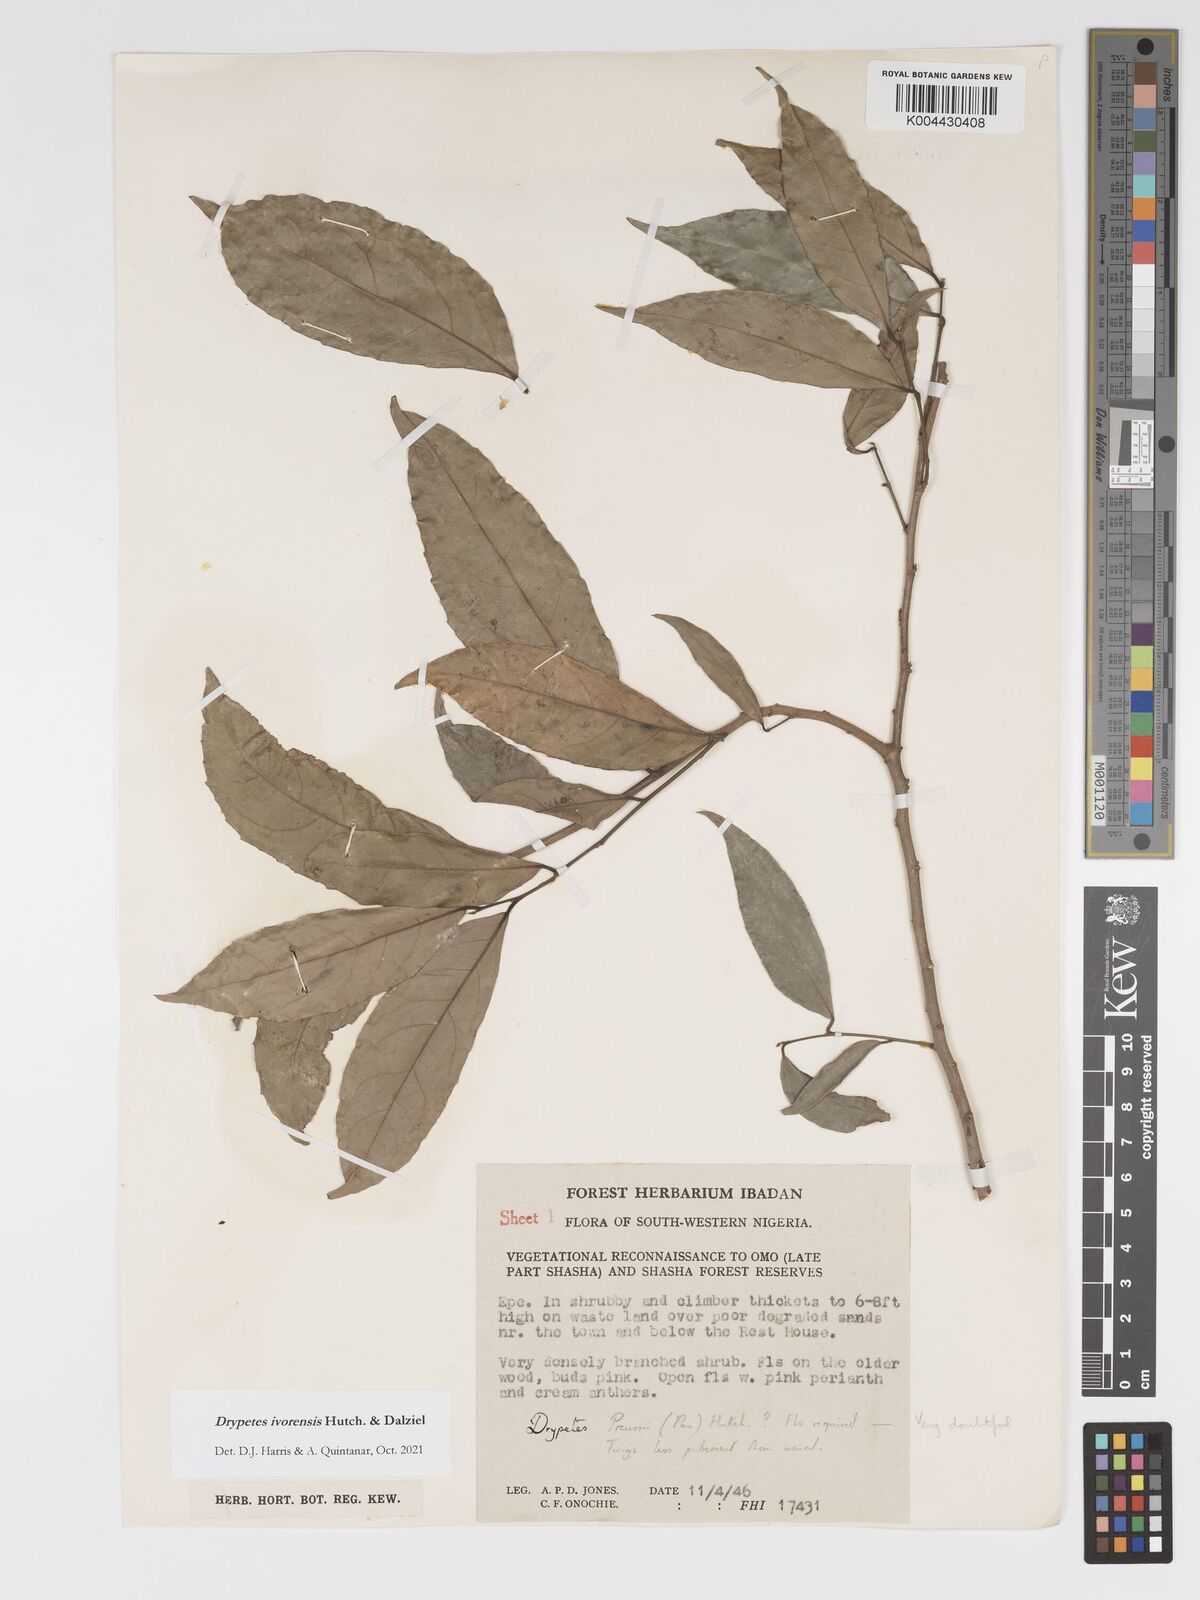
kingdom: Plantae
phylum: Tracheophyta
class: Magnoliopsida
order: Malpighiales
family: Putranjivaceae
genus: Drypetes
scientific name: Drypetes ivorensis
